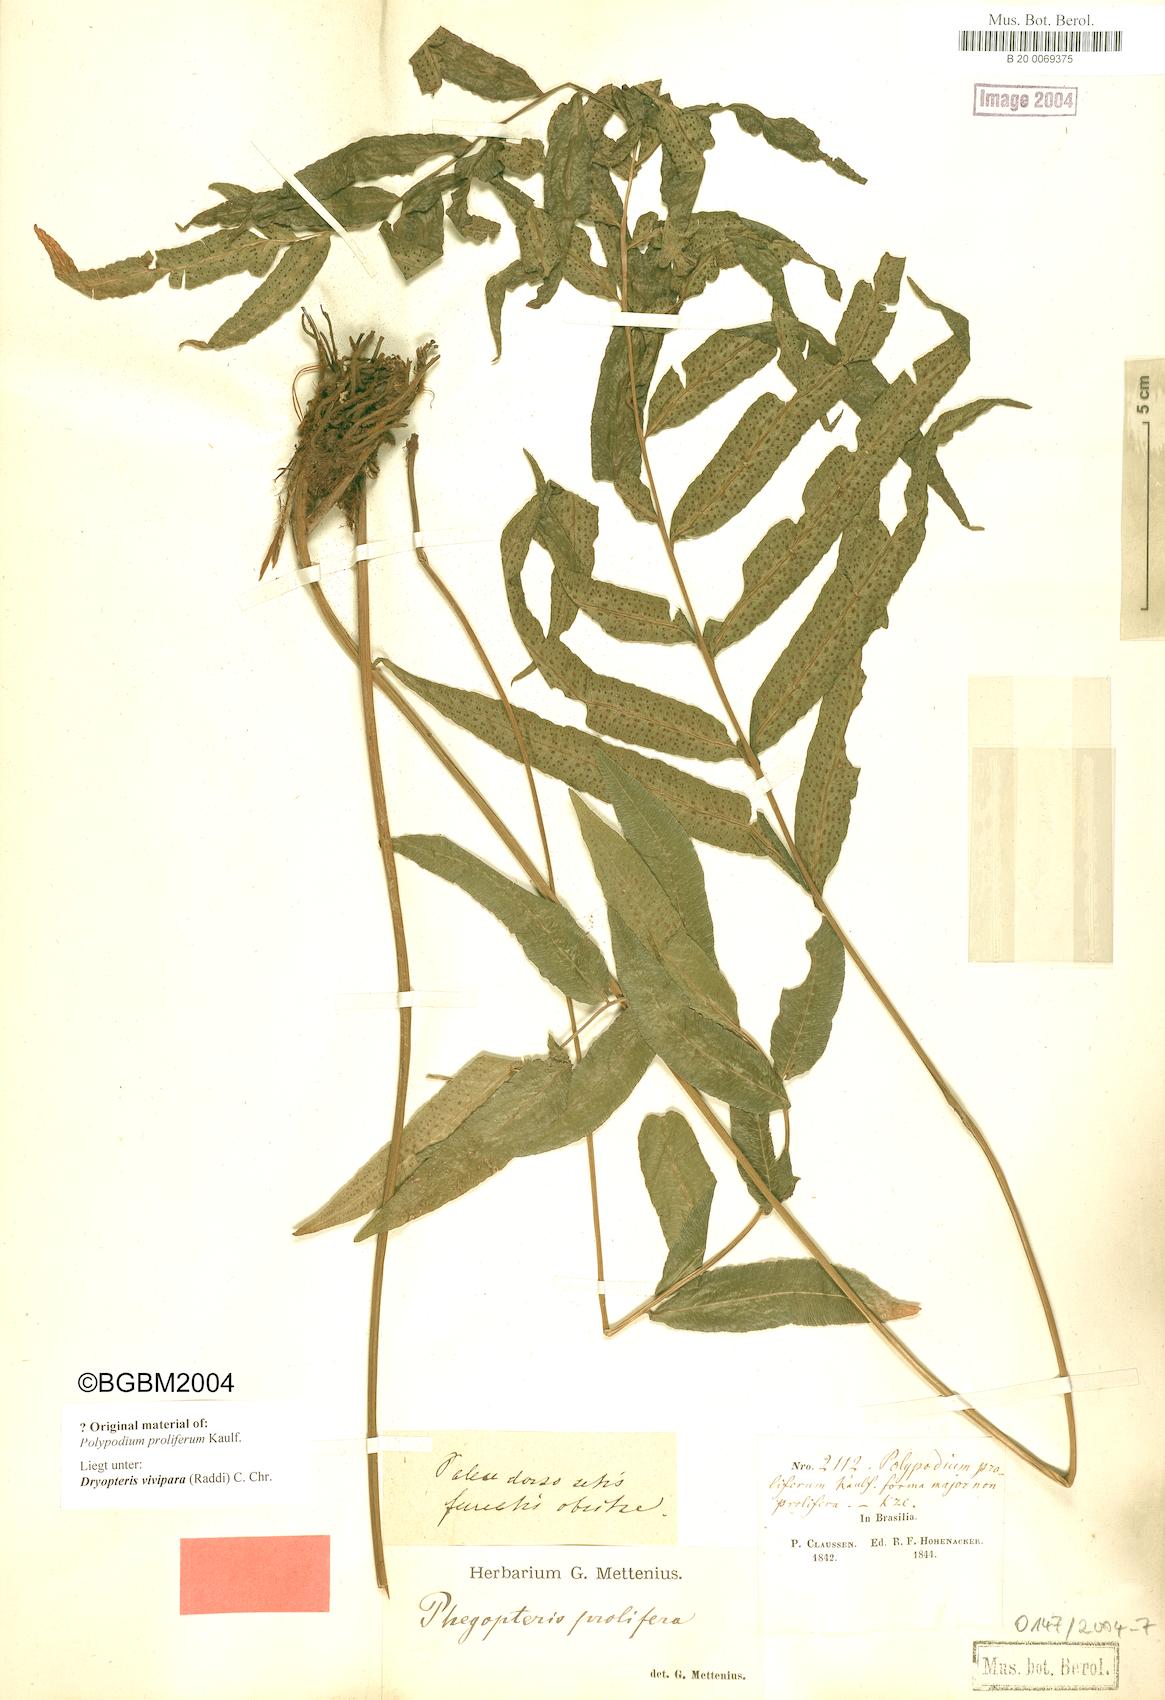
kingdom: Plantae
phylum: Tracheophyta
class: Polypodiopsida
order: Polypodiales
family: Thelypteridaceae
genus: Goniopteris
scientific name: Goniopteris vivipara
